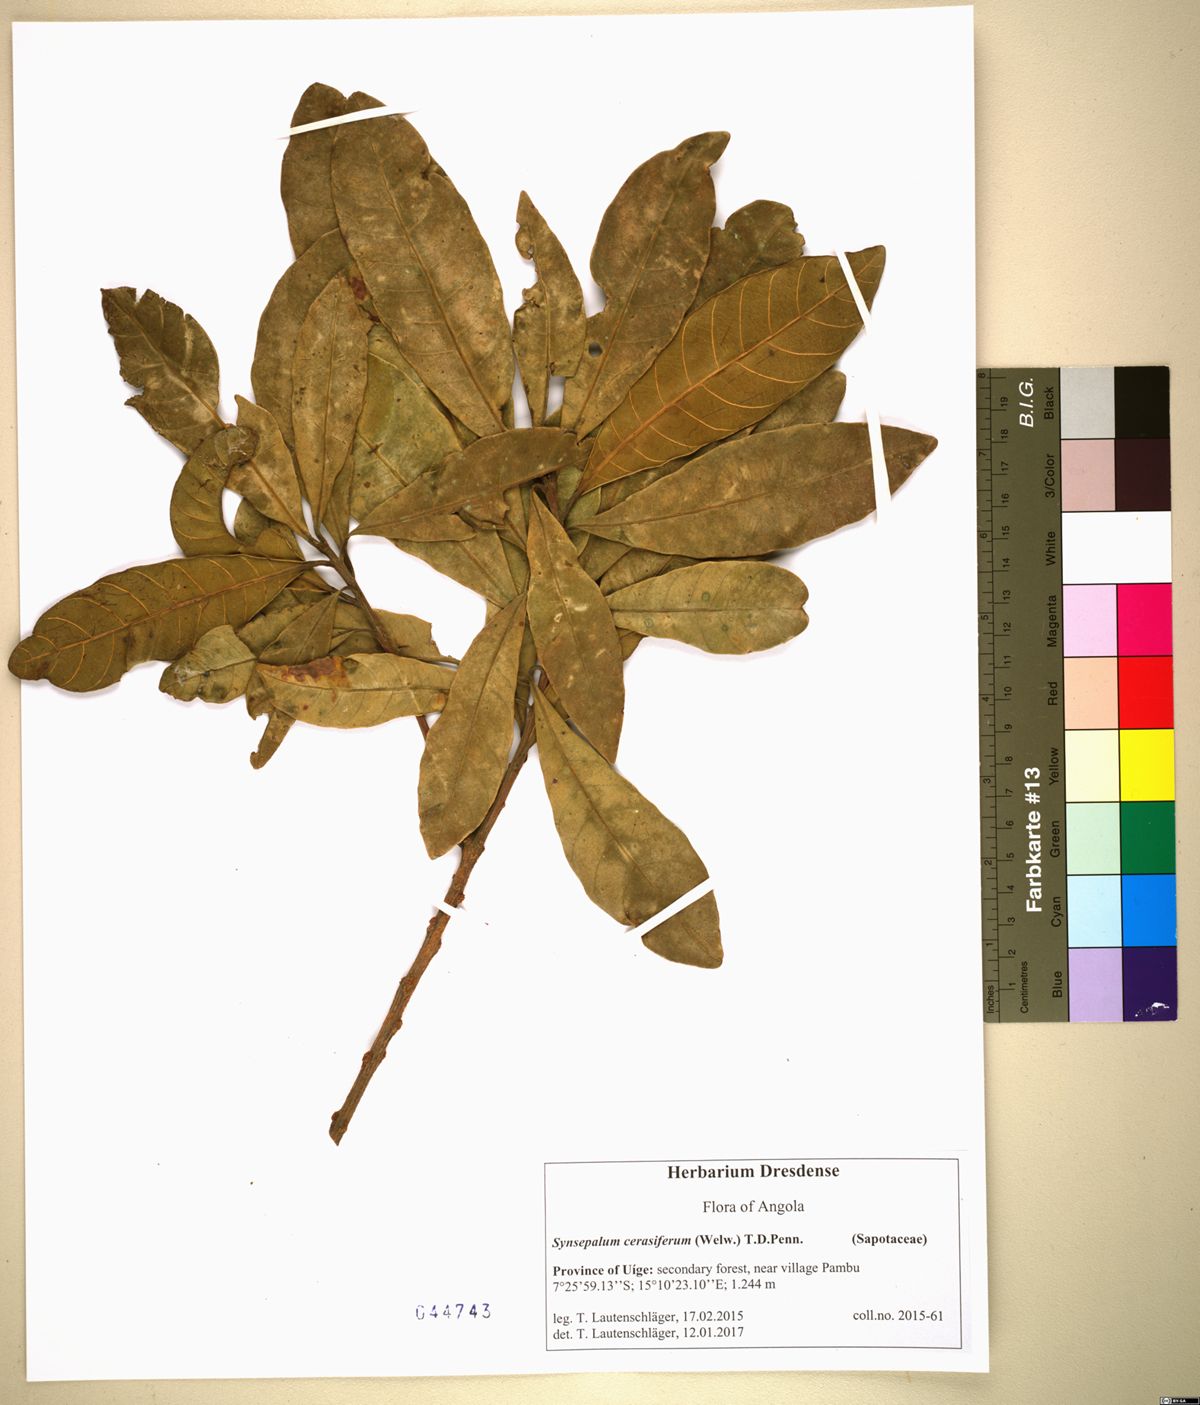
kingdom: Plantae
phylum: Tracheophyta
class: Magnoliopsida
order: Ericales
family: Sapotaceae
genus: Synsepalum
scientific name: Synsepalum cerasiferum
